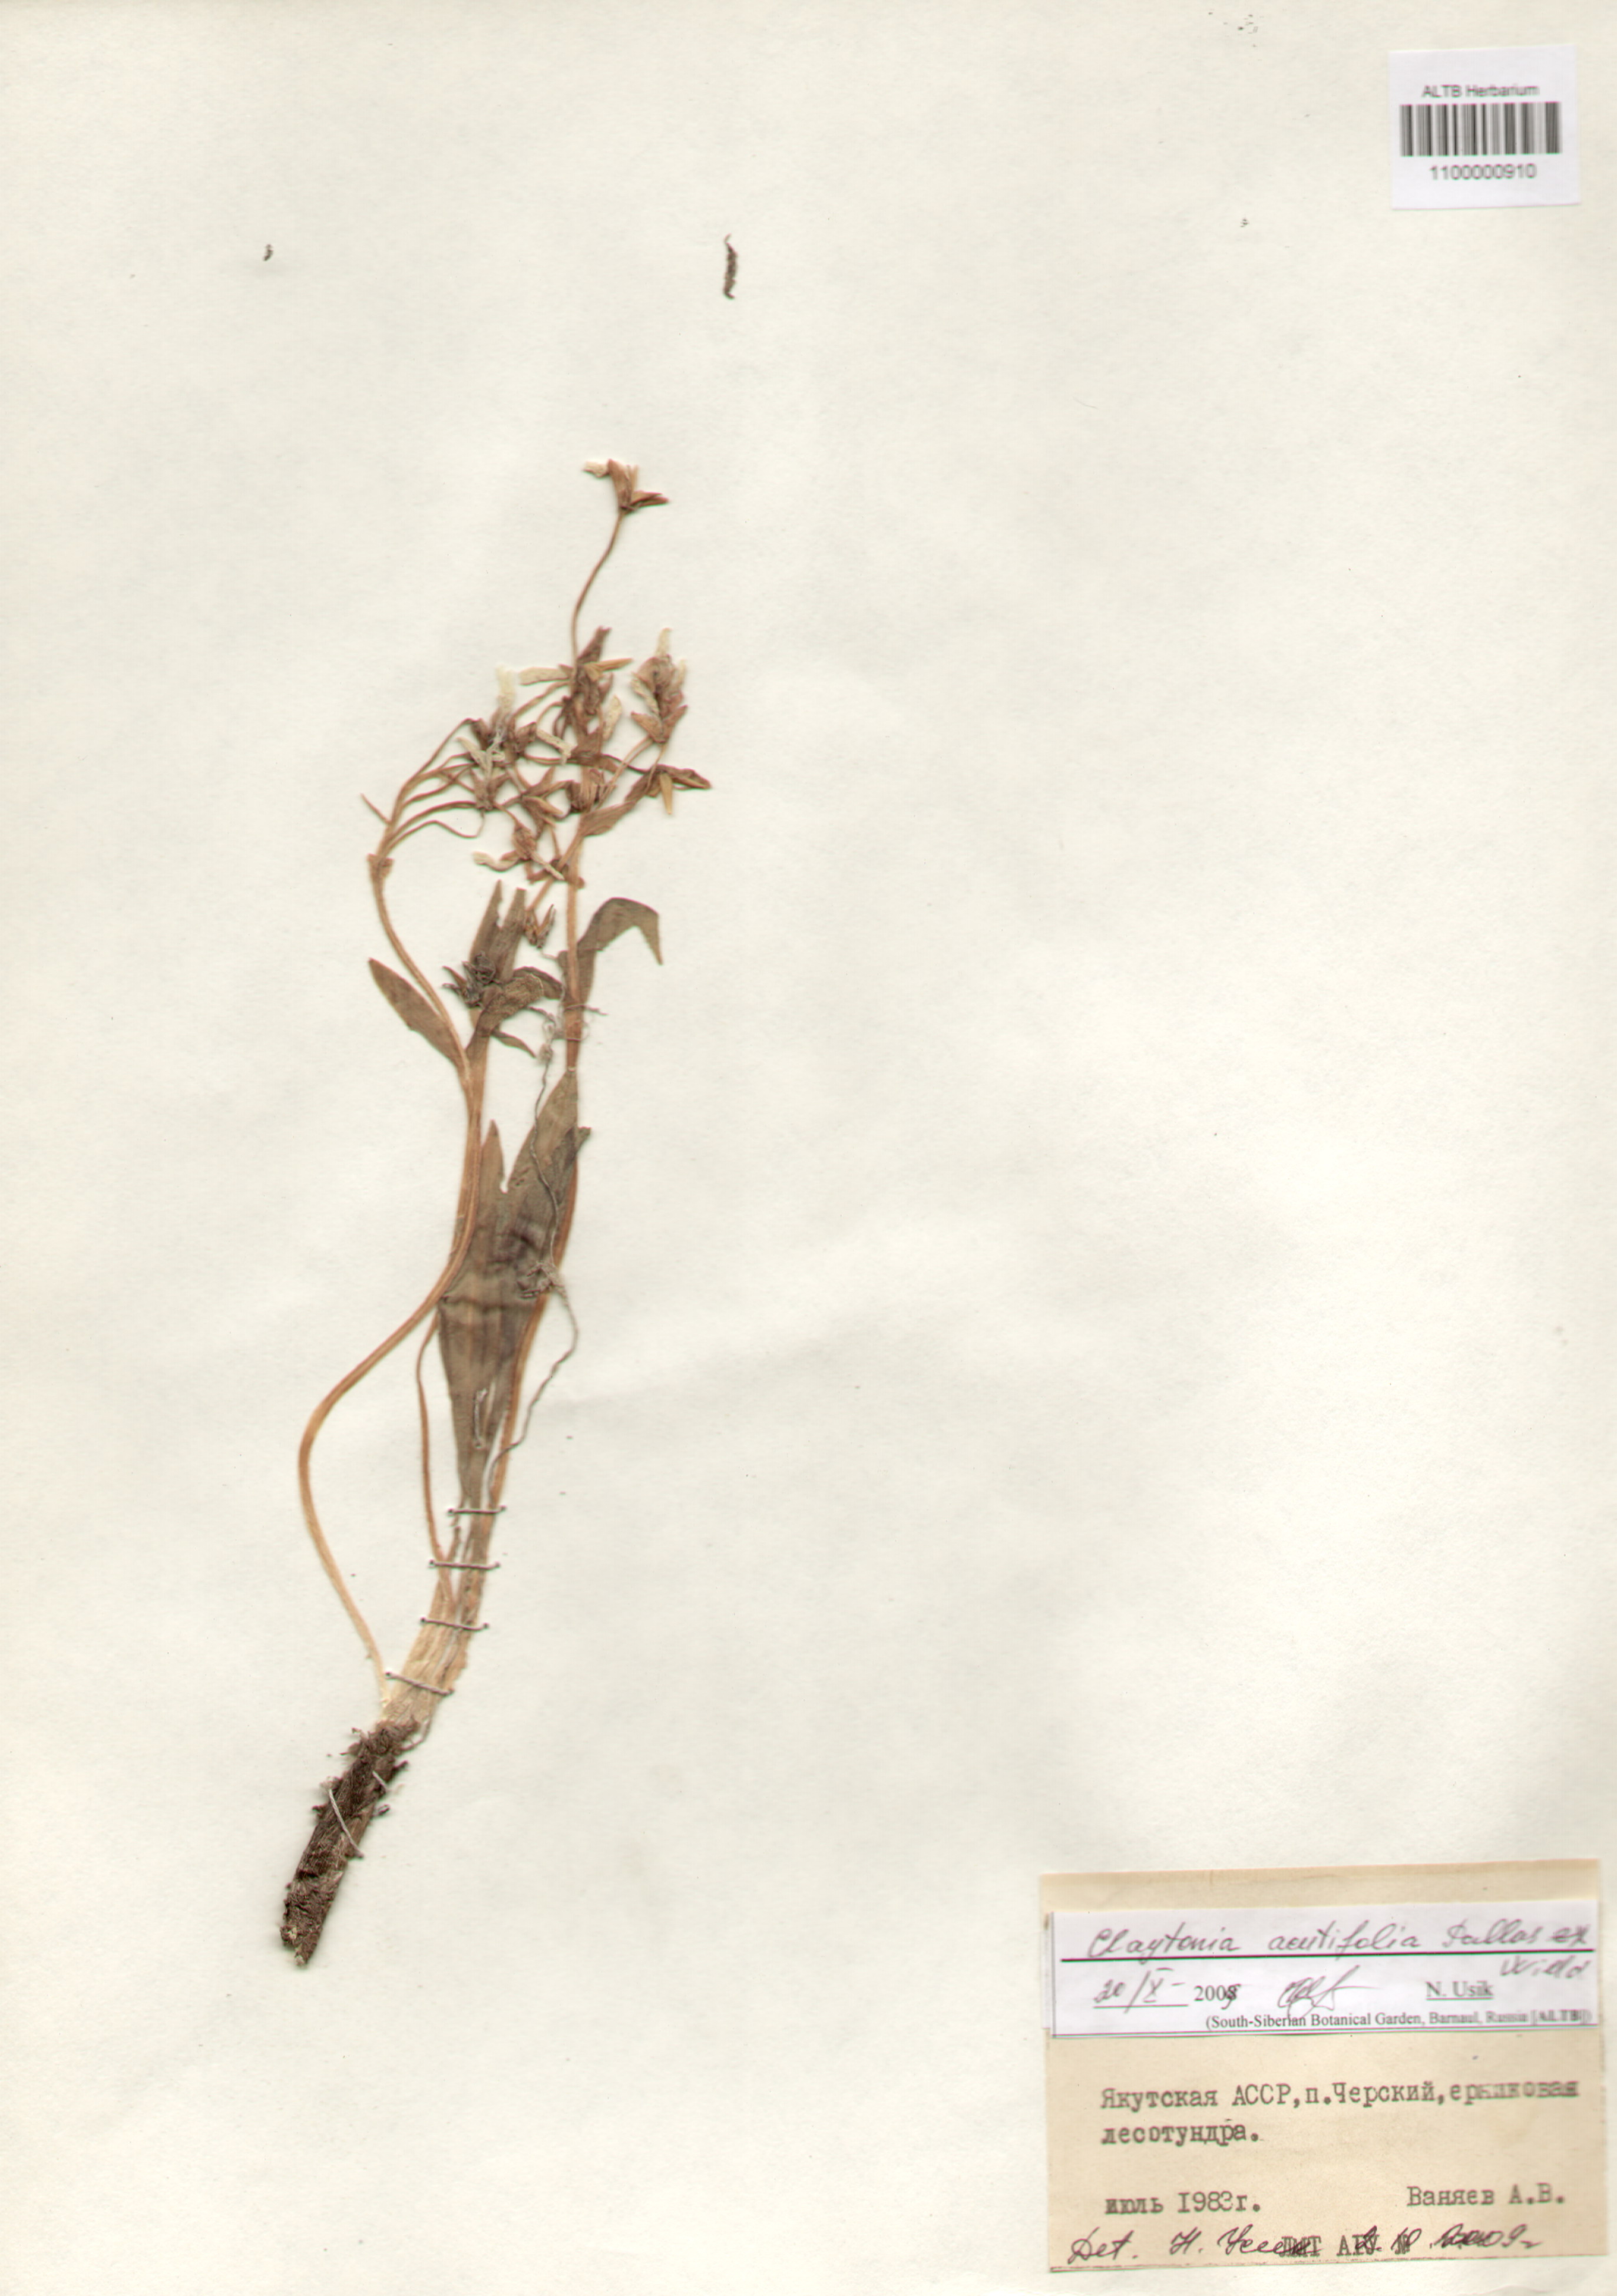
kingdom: Plantae
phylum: Tracheophyta
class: Magnoliopsida
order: Caryophyllales
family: Montiaceae
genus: Claytonia
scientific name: Claytonia arctica
